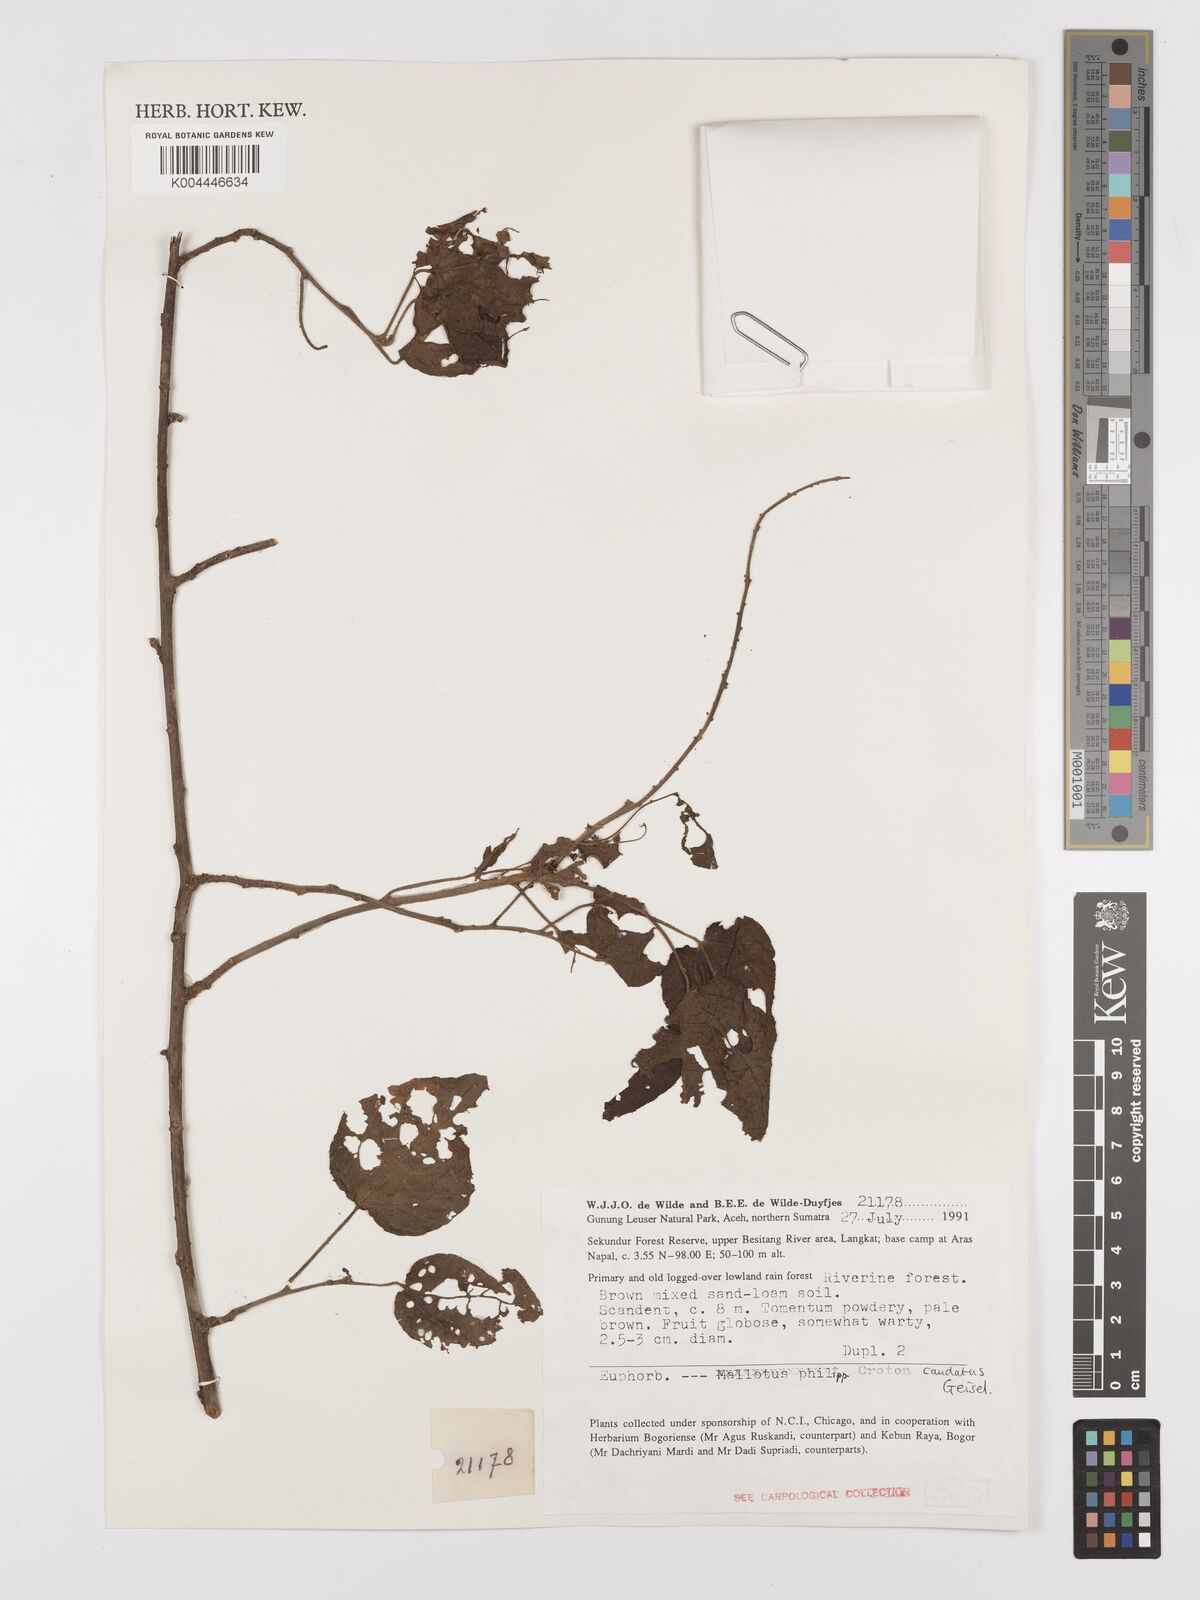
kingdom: Plantae
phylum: Tracheophyta
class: Magnoliopsida
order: Malpighiales
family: Euphorbiaceae
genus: Croton
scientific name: Croton caudatus
